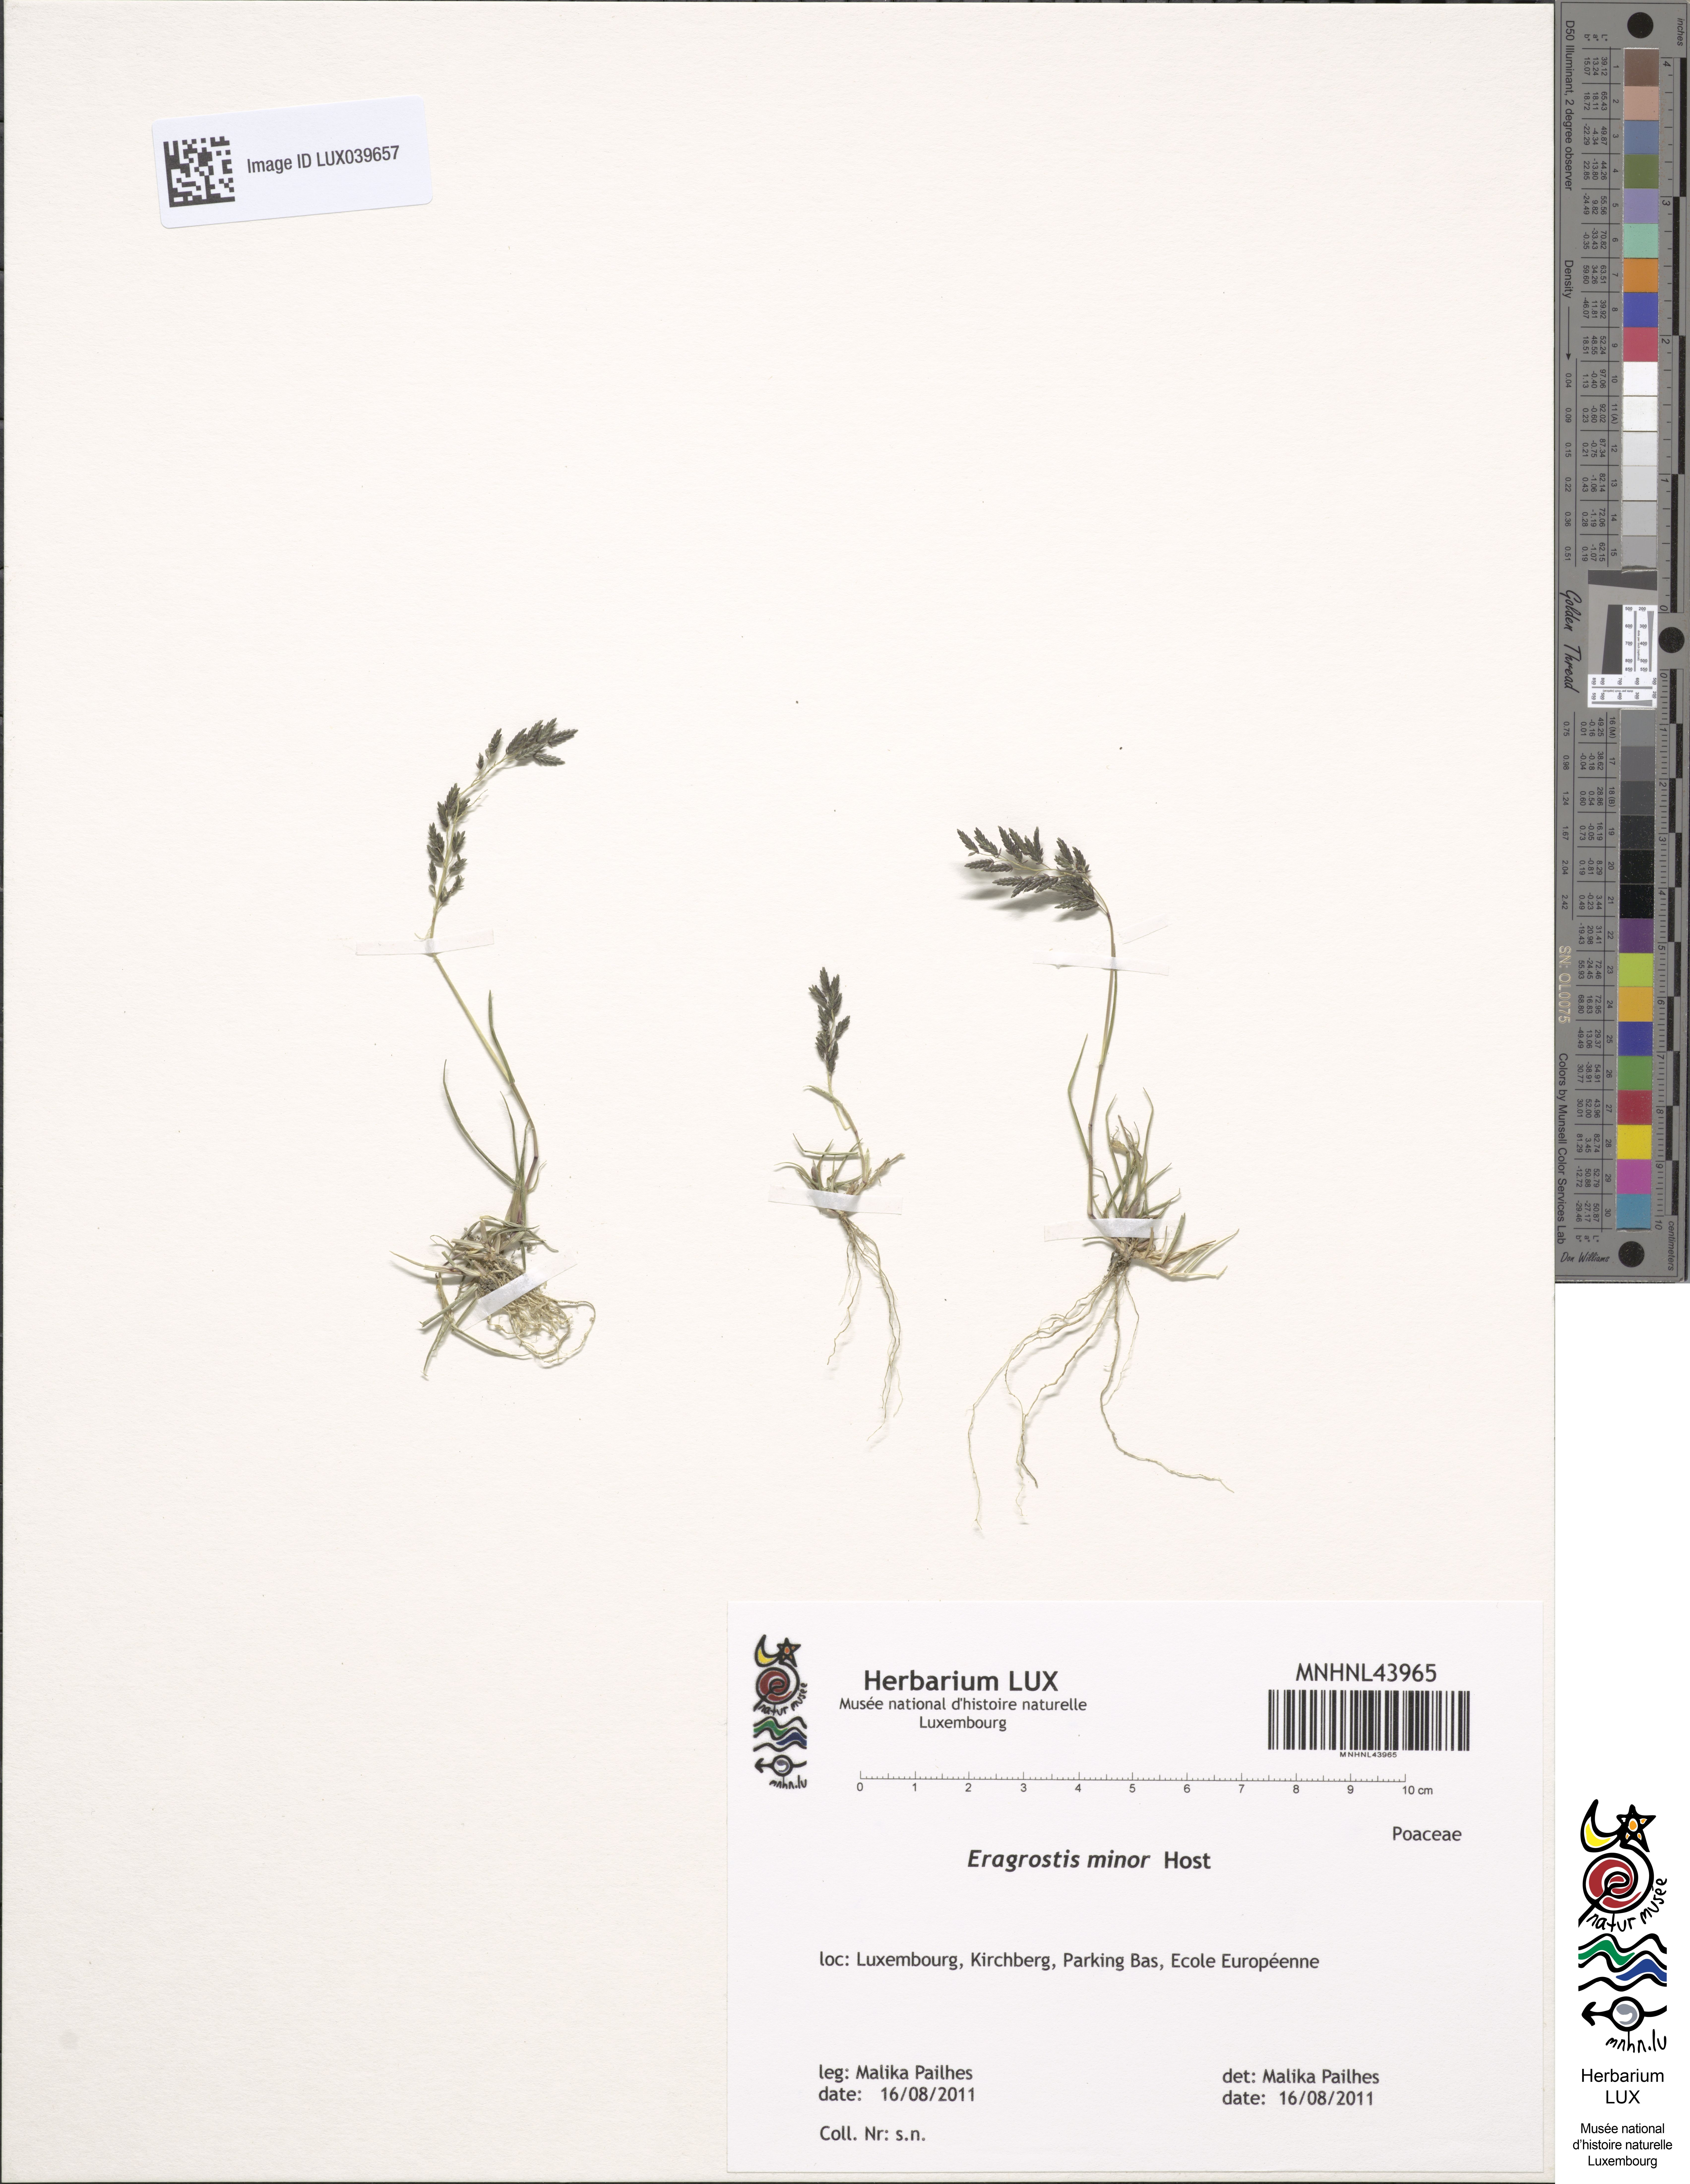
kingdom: Plantae
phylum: Tracheophyta
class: Liliopsida
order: Poales
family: Poaceae
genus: Eragrostis
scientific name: Eragrostis minor
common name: Small love-grass
